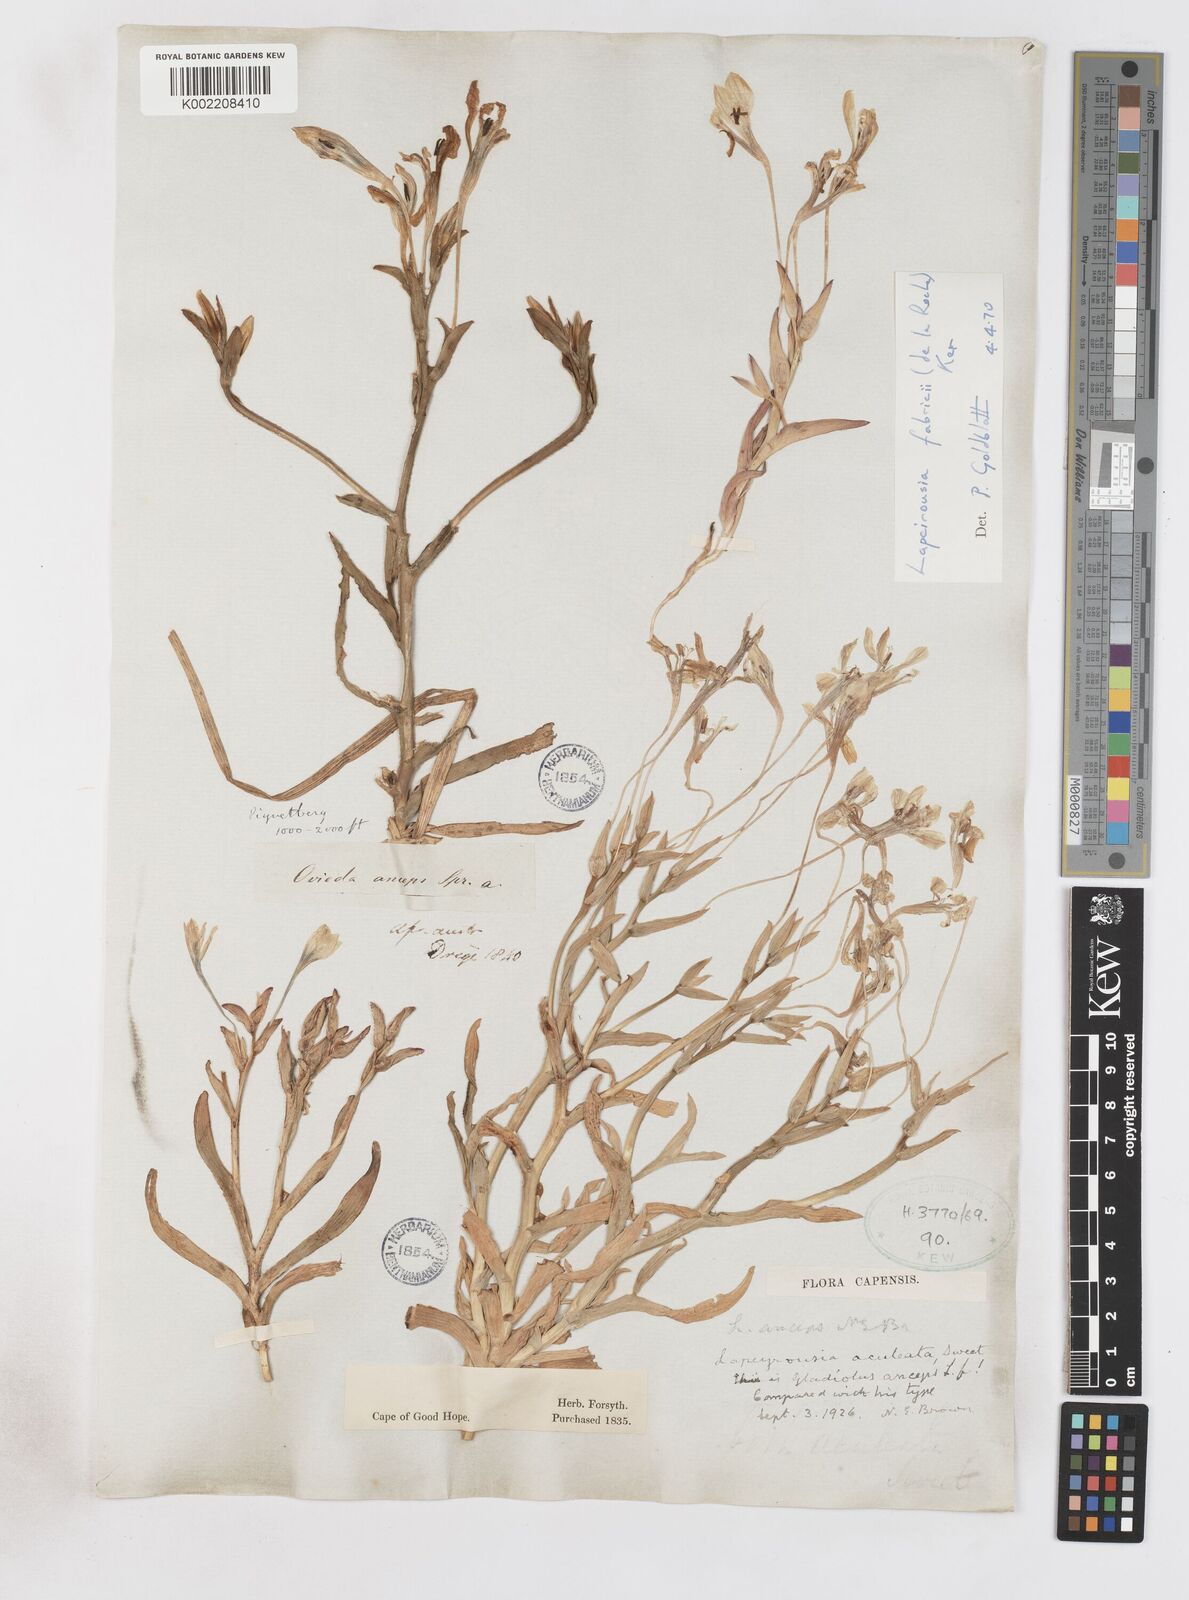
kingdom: Plantae
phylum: Tracheophyta
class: Liliopsida
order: Asparagales
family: Iridaceae
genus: Lapeirousia
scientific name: Lapeirousia fabricii
